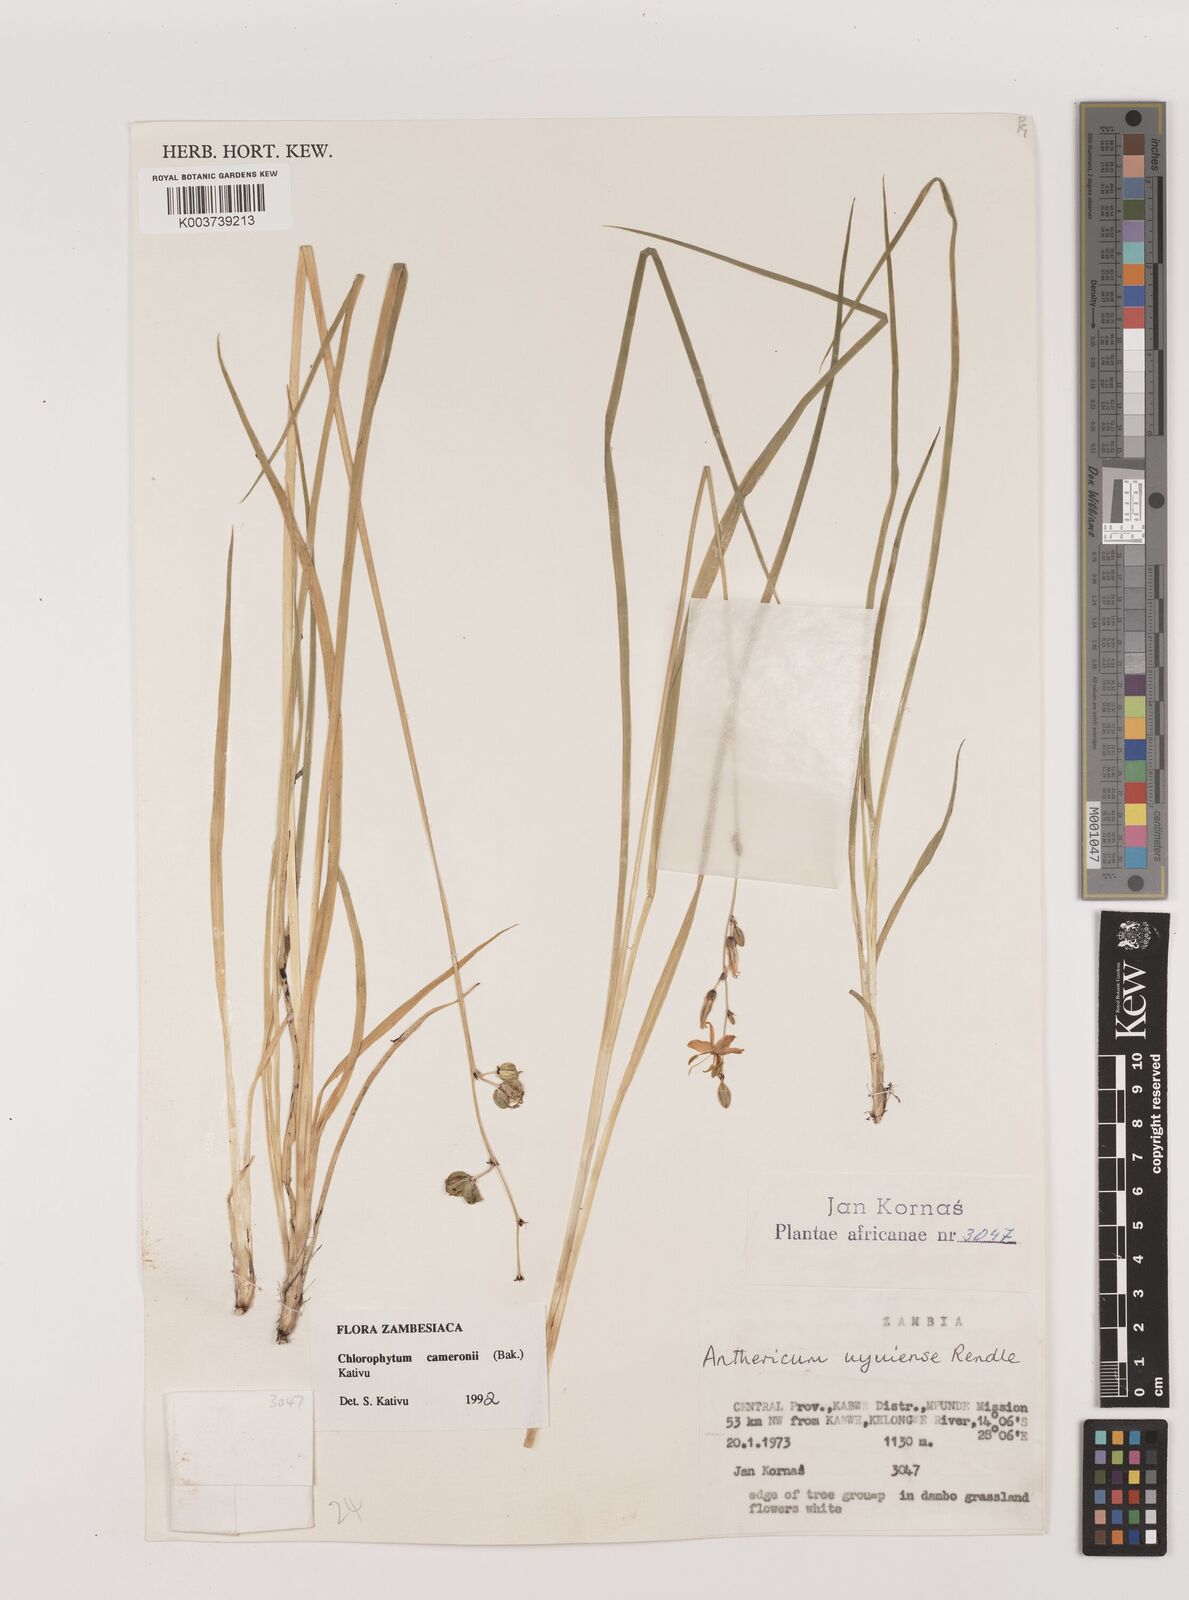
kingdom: Plantae
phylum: Tracheophyta
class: Liliopsida
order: Asparagales
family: Asparagaceae
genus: Chlorophytum
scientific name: Chlorophytum cameronii
